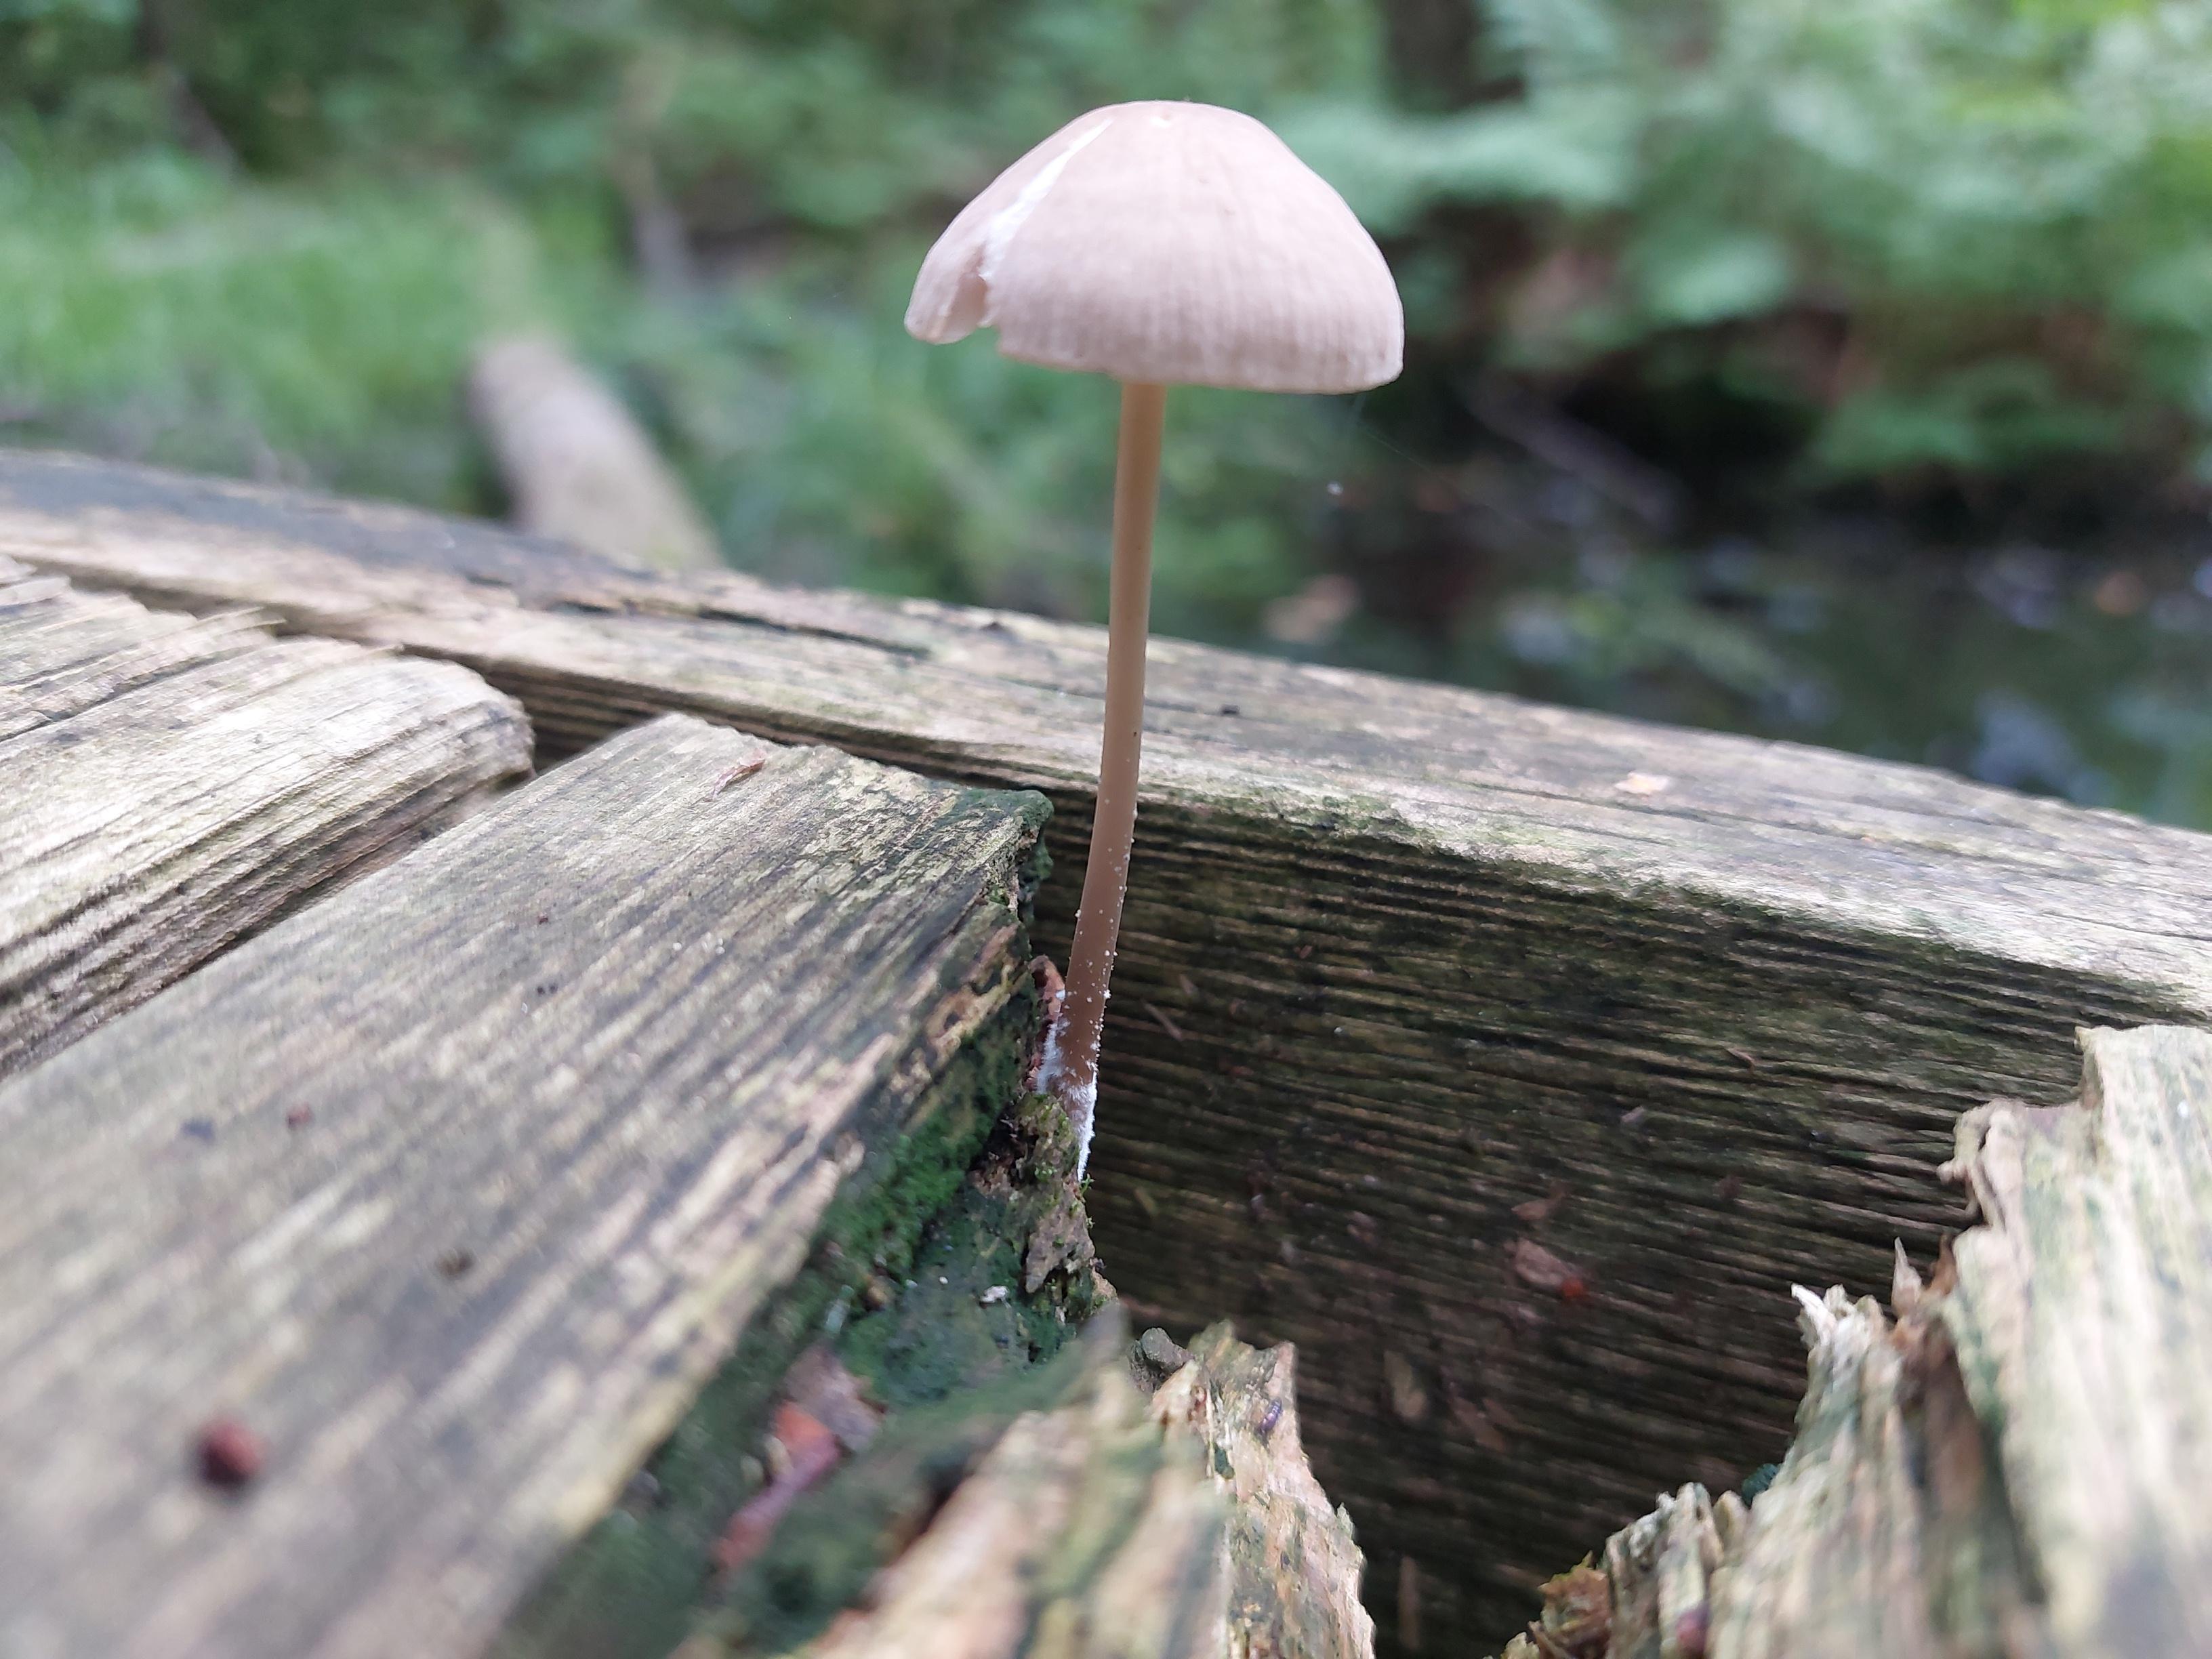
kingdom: Fungi
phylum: Basidiomycota
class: Agaricomycetes
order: Agaricales
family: Mycenaceae
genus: Mycena
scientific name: Mycena galericulata
